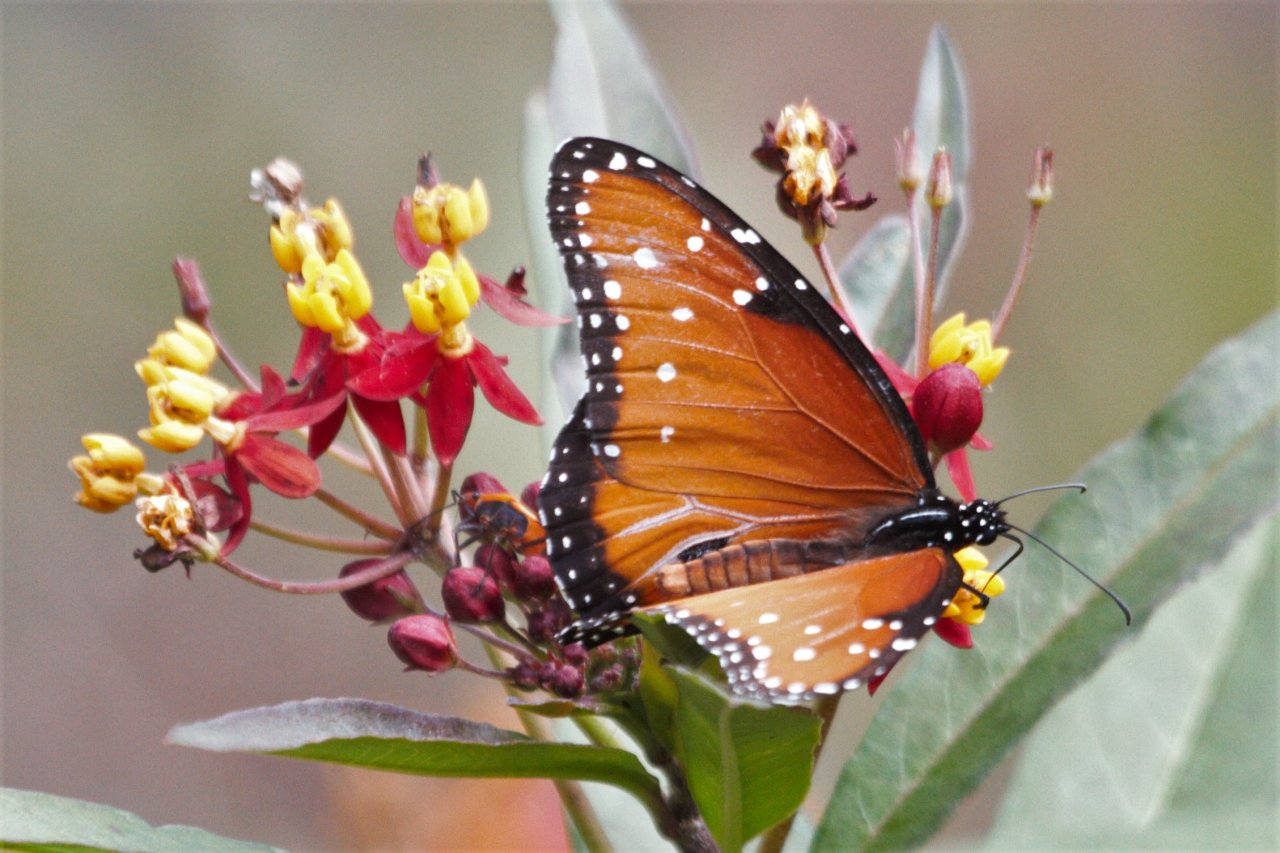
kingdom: Animalia
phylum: Arthropoda
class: Insecta
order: Lepidoptera
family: Nymphalidae
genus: Danaus
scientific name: Danaus gilippus
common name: Queen
